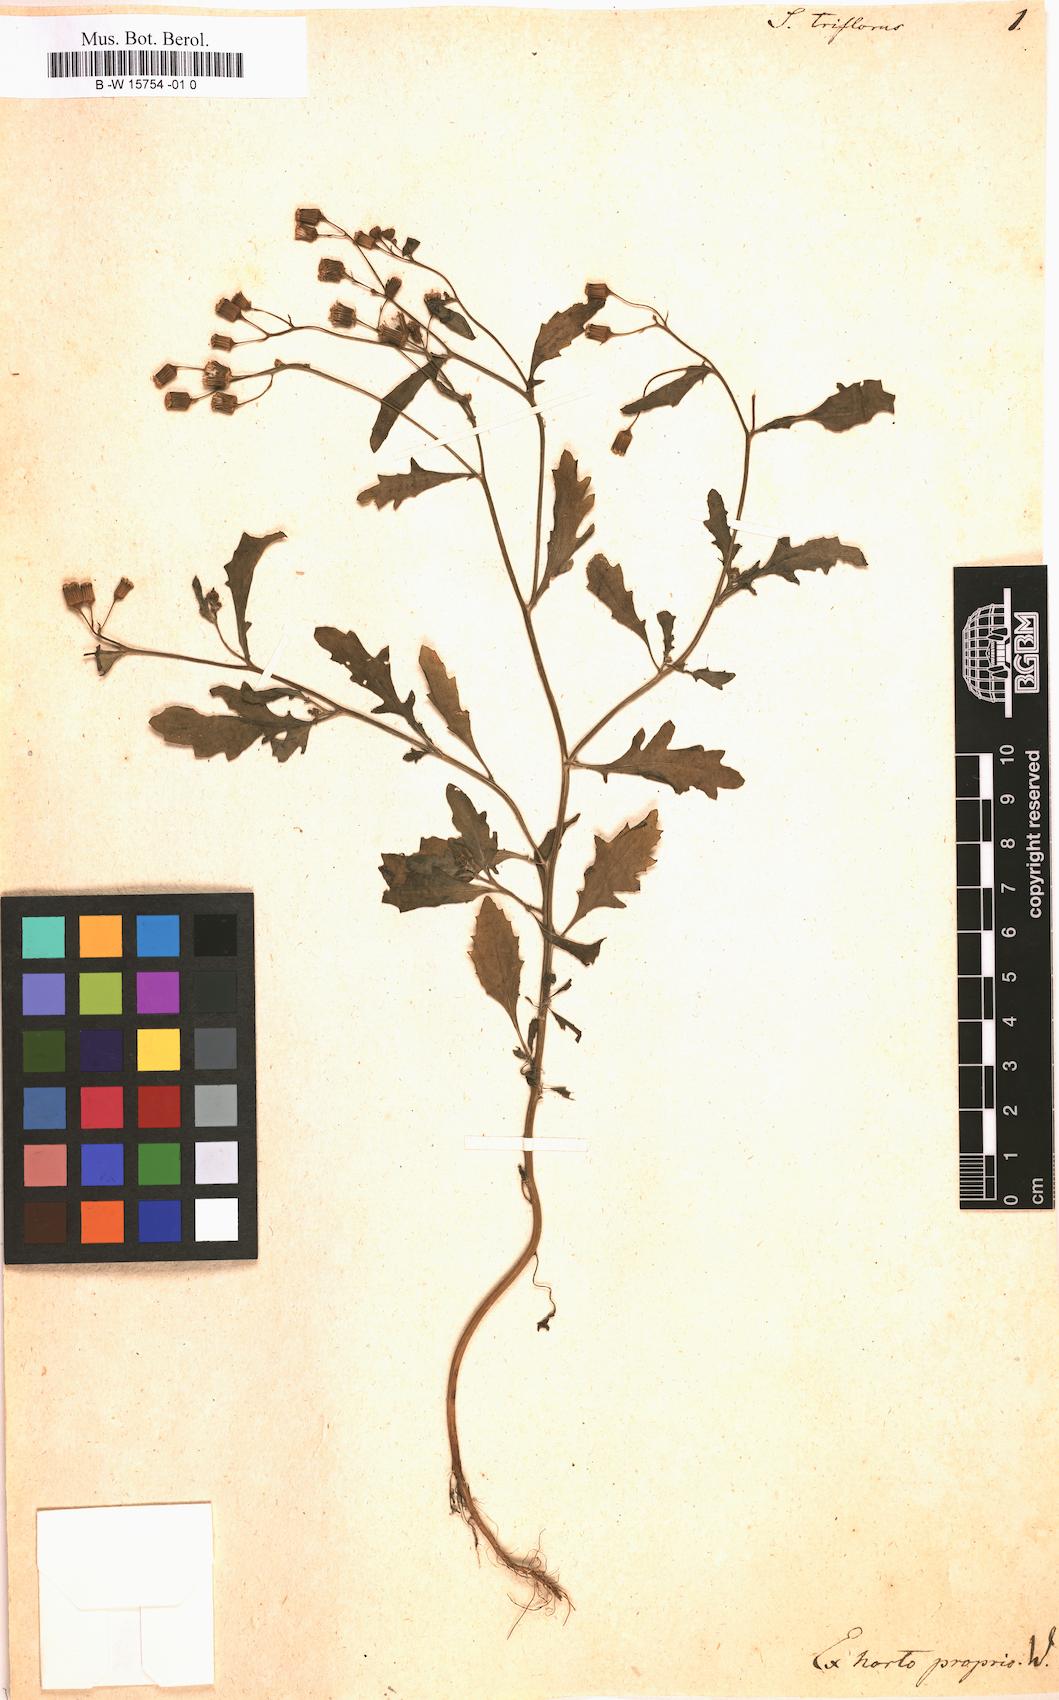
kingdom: Plantae
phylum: Tracheophyta
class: Magnoliopsida
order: Asterales
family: Asteraceae
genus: Senecio
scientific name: Senecio aegyptius
